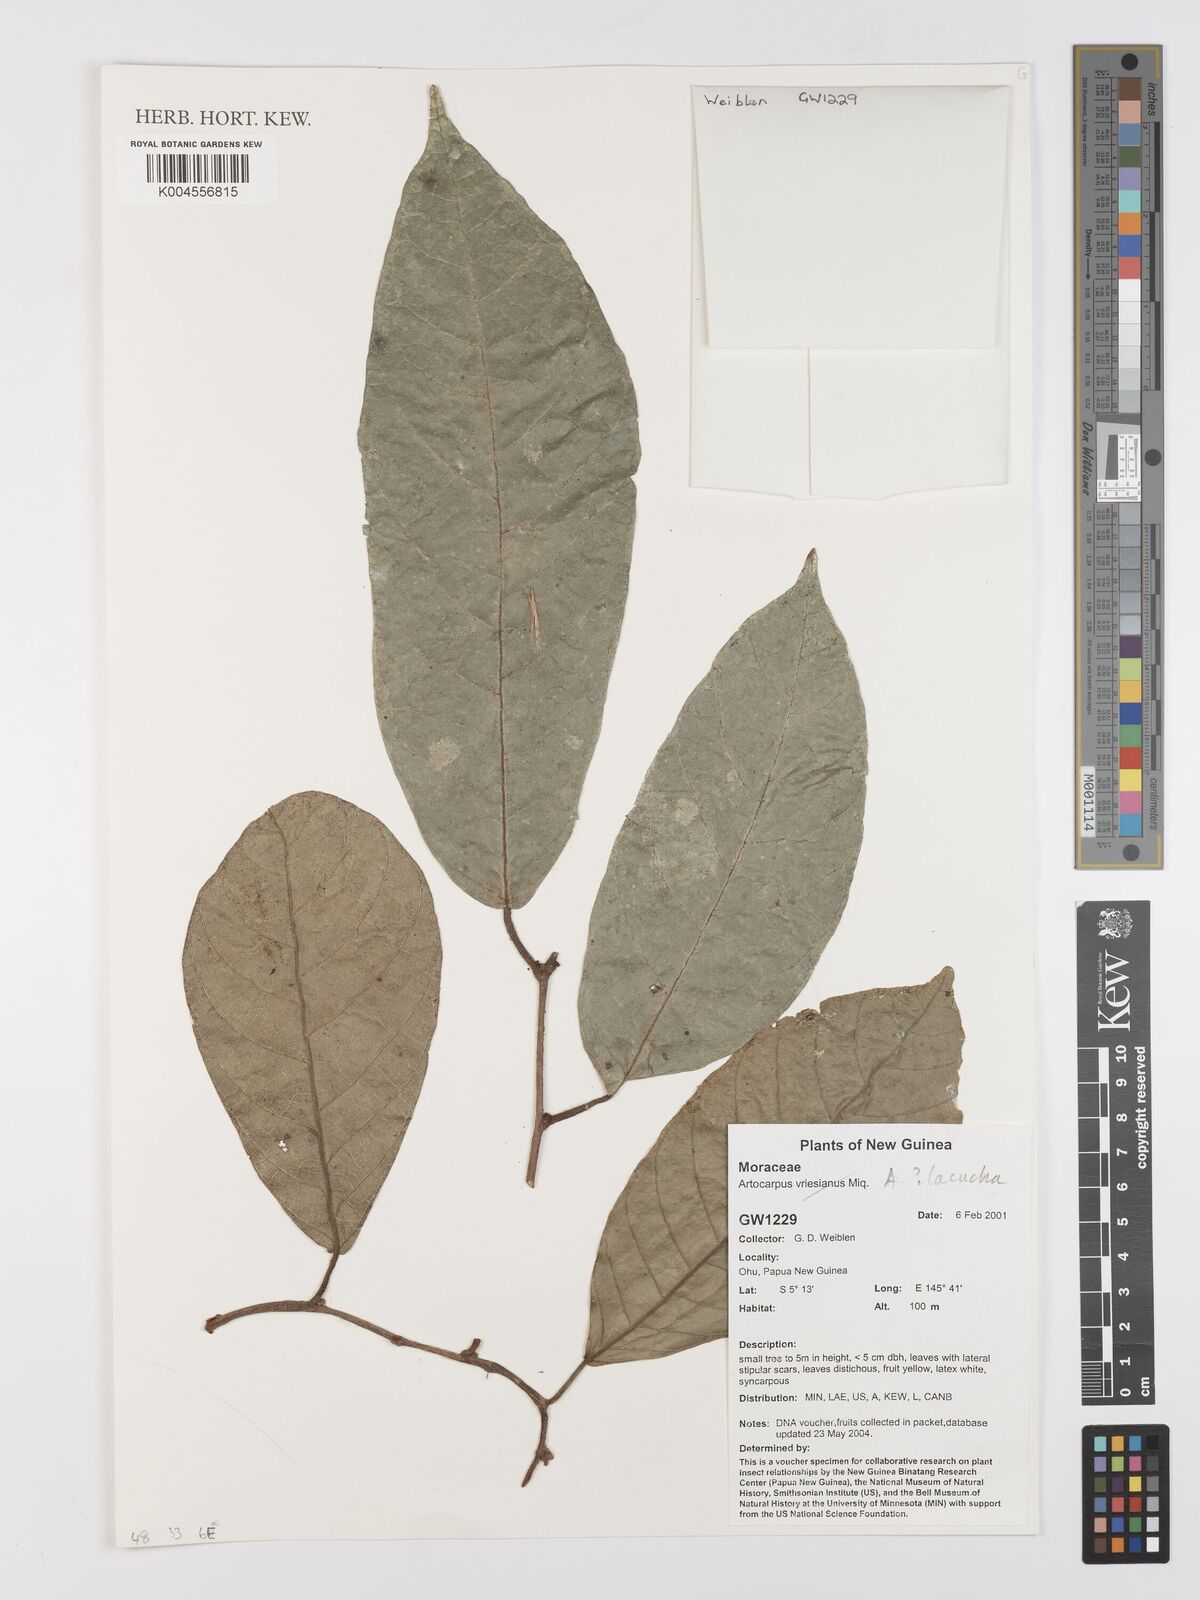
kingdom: Plantae
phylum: Tracheophyta
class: Magnoliopsida
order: Rosales
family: Moraceae
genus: Artocarpus
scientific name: Artocarpus lacucha
